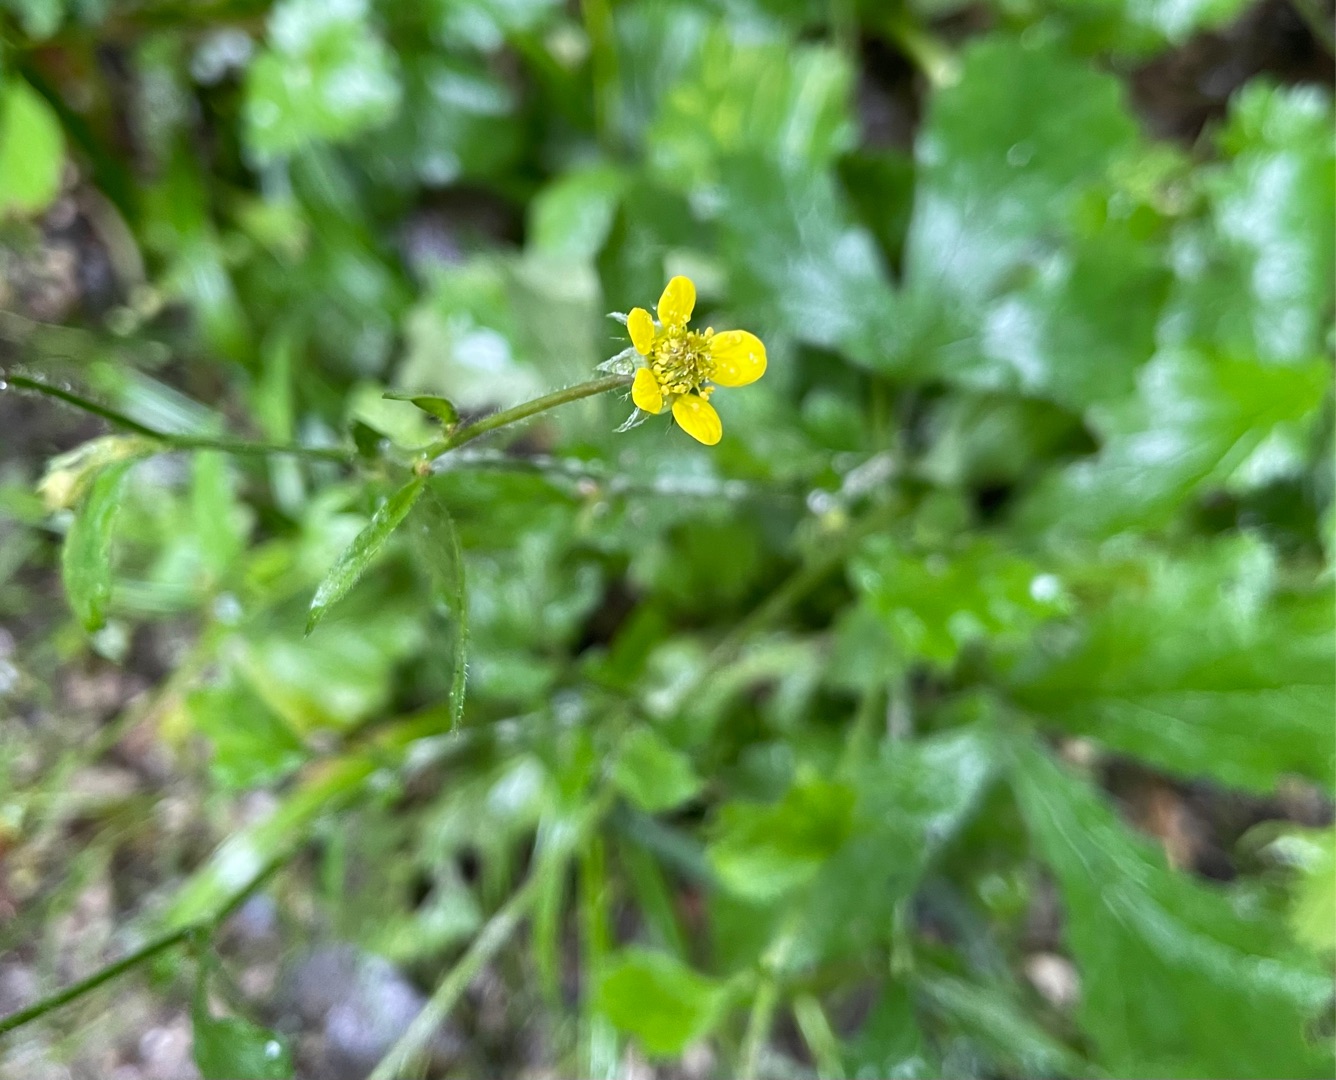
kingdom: Plantae
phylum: Tracheophyta
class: Magnoliopsida
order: Rosales
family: Rosaceae
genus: Geum
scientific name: Geum urbanum
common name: Feber-nellikerod
